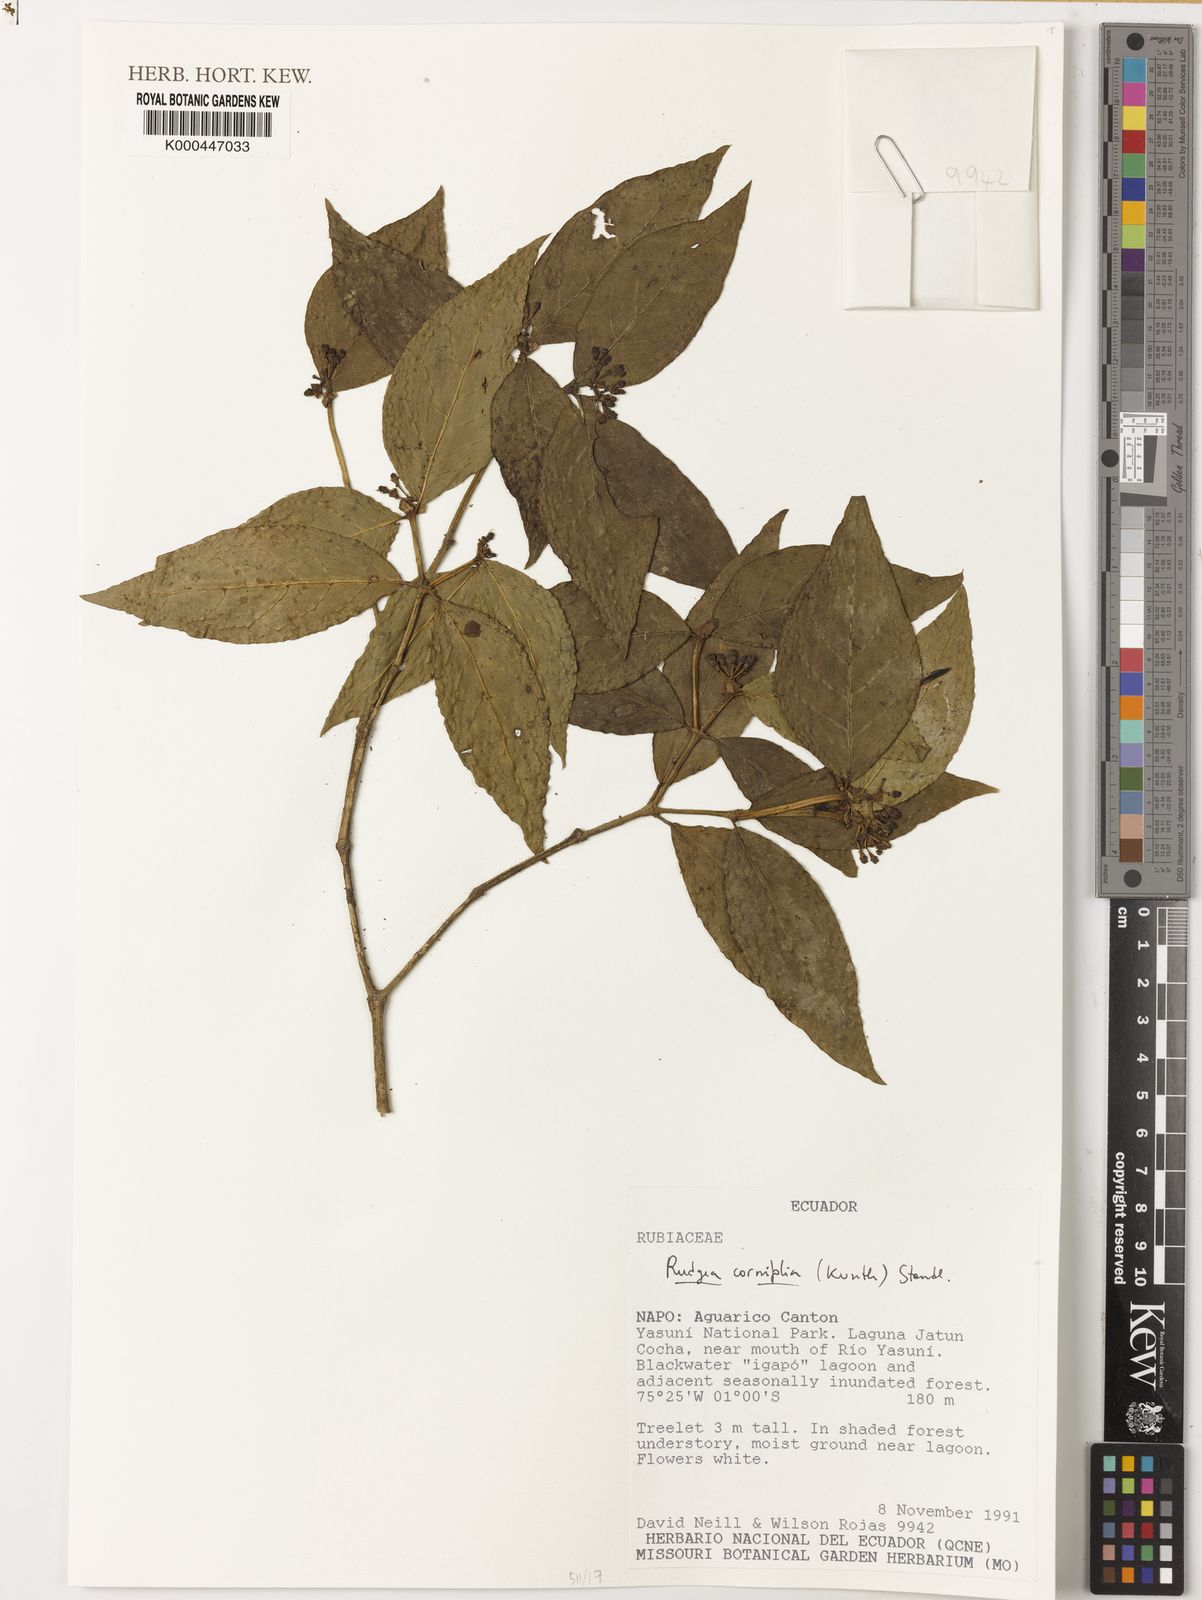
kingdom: Plantae
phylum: Tracheophyta
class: Magnoliopsida
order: Gentianales
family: Rubiaceae
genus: Rudgea
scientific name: Rudgea cornifolia
